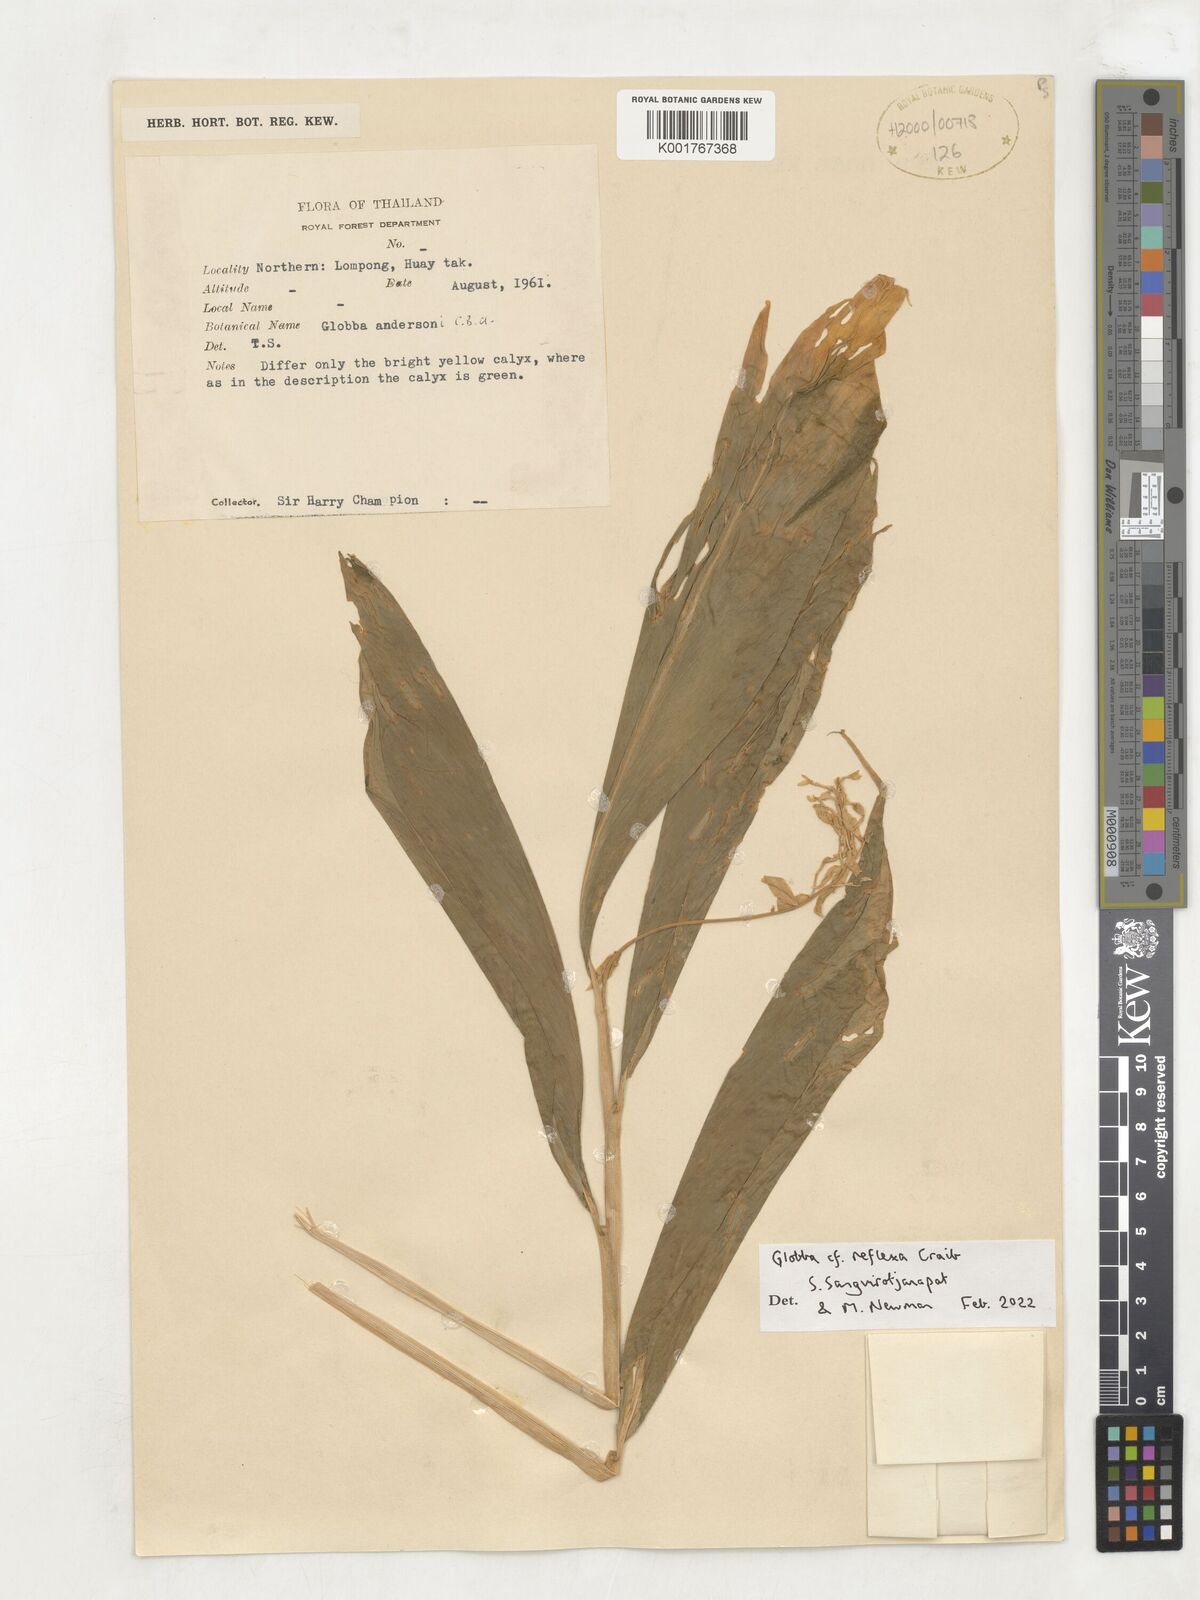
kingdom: Plantae
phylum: Tracheophyta
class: Liliopsida
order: Zingiberales
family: Zingiberaceae
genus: Globba
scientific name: Globba reflexa
